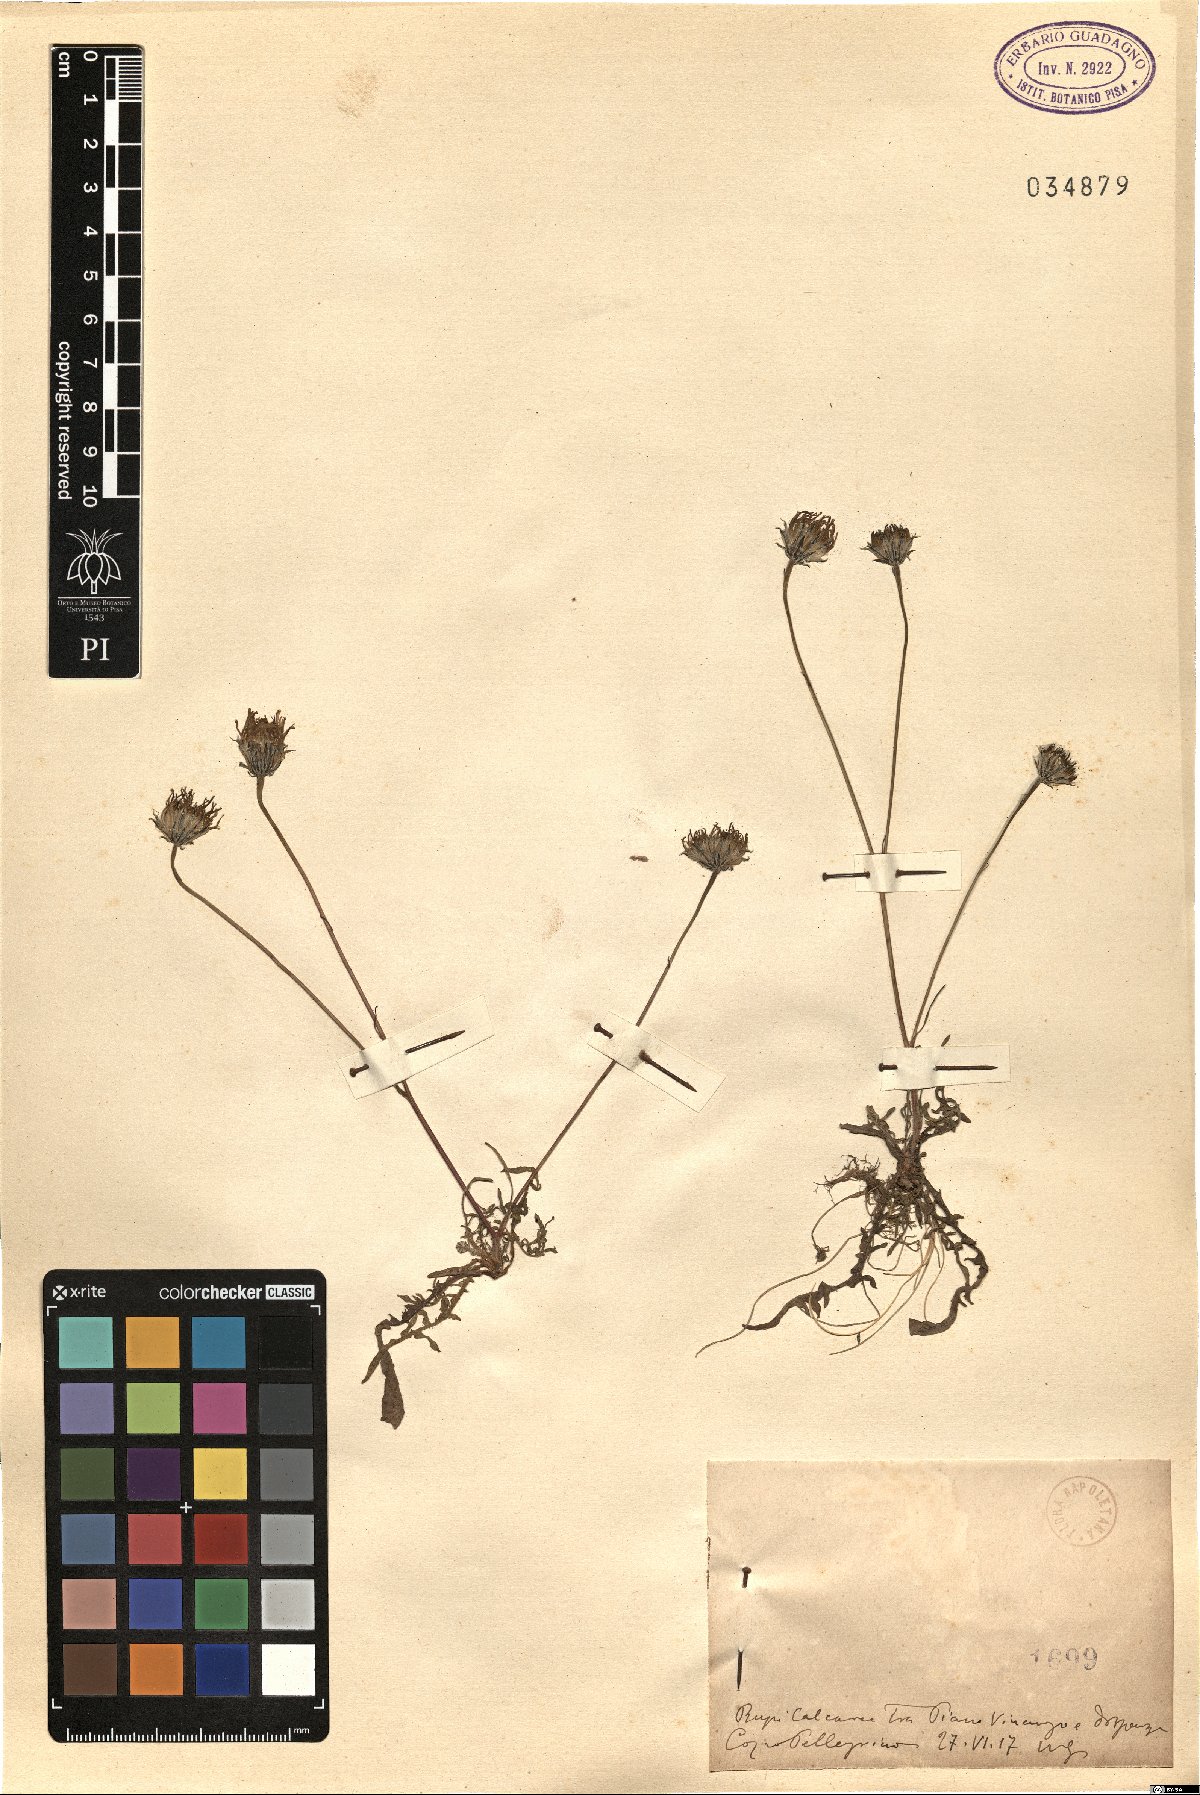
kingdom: Plantae
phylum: Tracheophyta
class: Magnoliopsida
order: Asterales
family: Asteraceae
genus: Hypochaeris
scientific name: Hypochaeris
